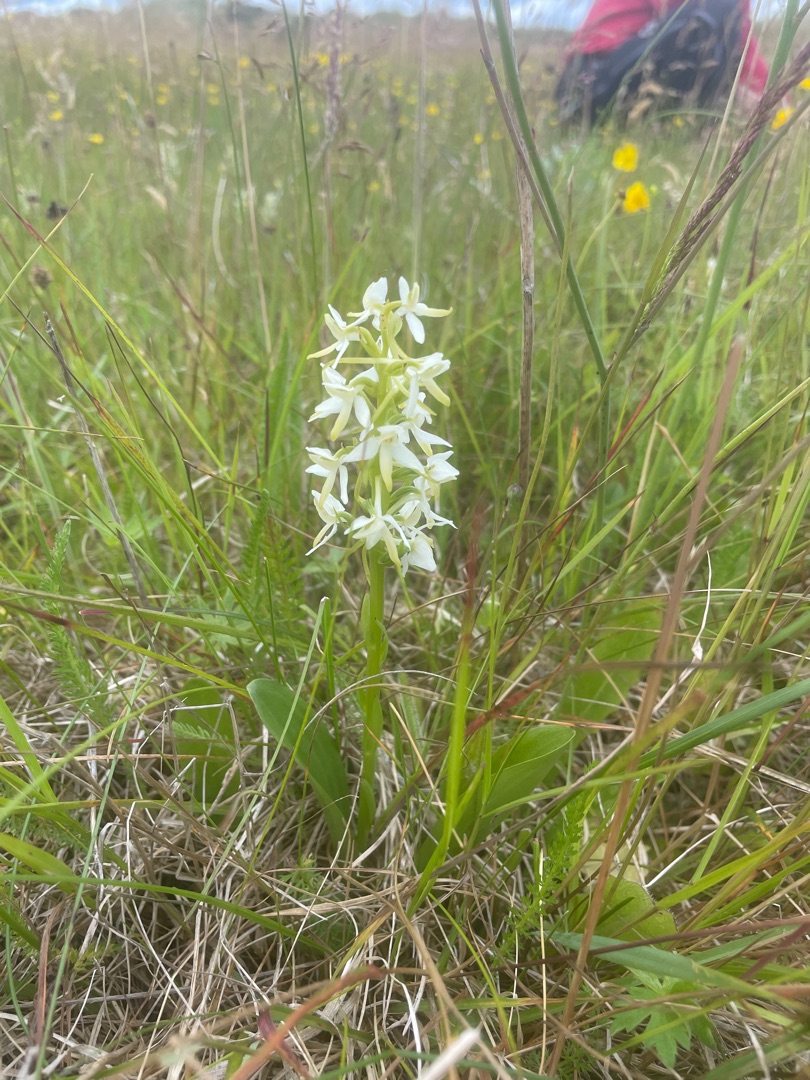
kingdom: Plantae
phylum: Tracheophyta
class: Liliopsida
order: Asparagales
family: Orchidaceae
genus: Platanthera
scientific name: Platanthera bifolia
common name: Bakke-gøgelilje
